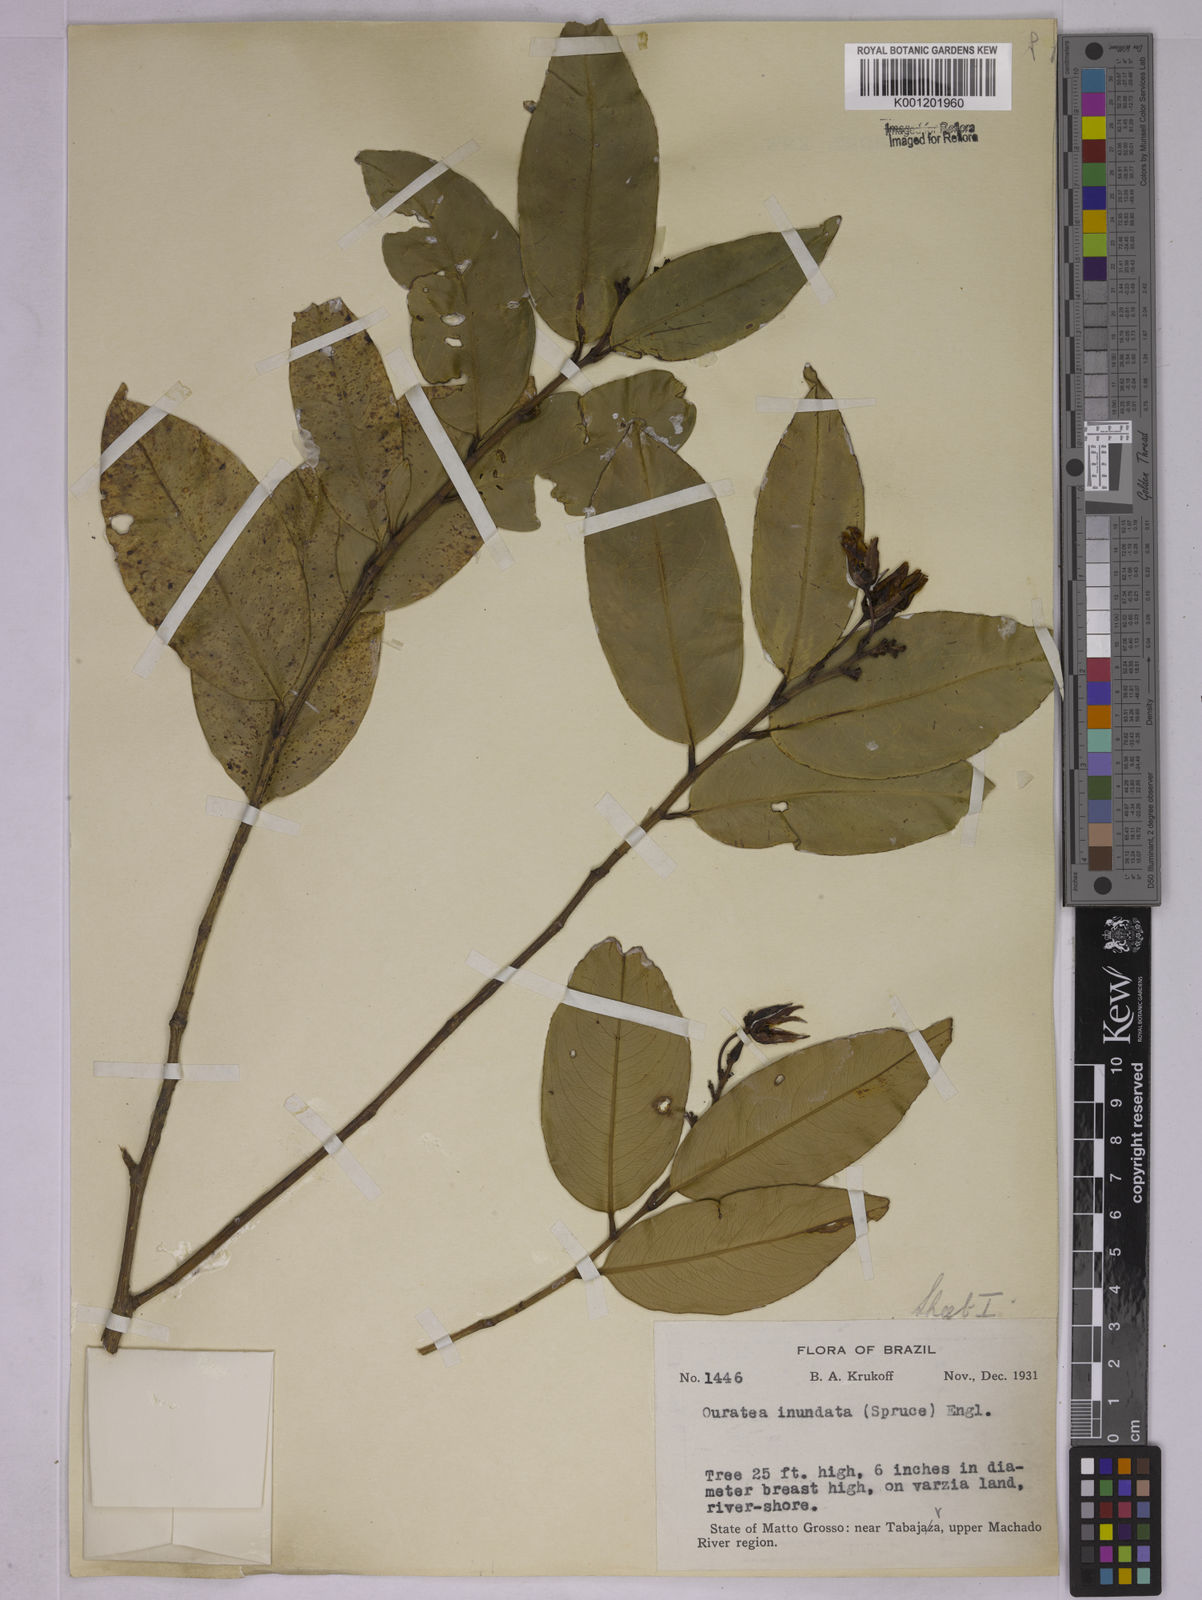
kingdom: Plantae
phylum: Tracheophyta
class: Magnoliopsida
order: Malpighiales
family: Ochnaceae
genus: Ouratea
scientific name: Ouratea inundata
